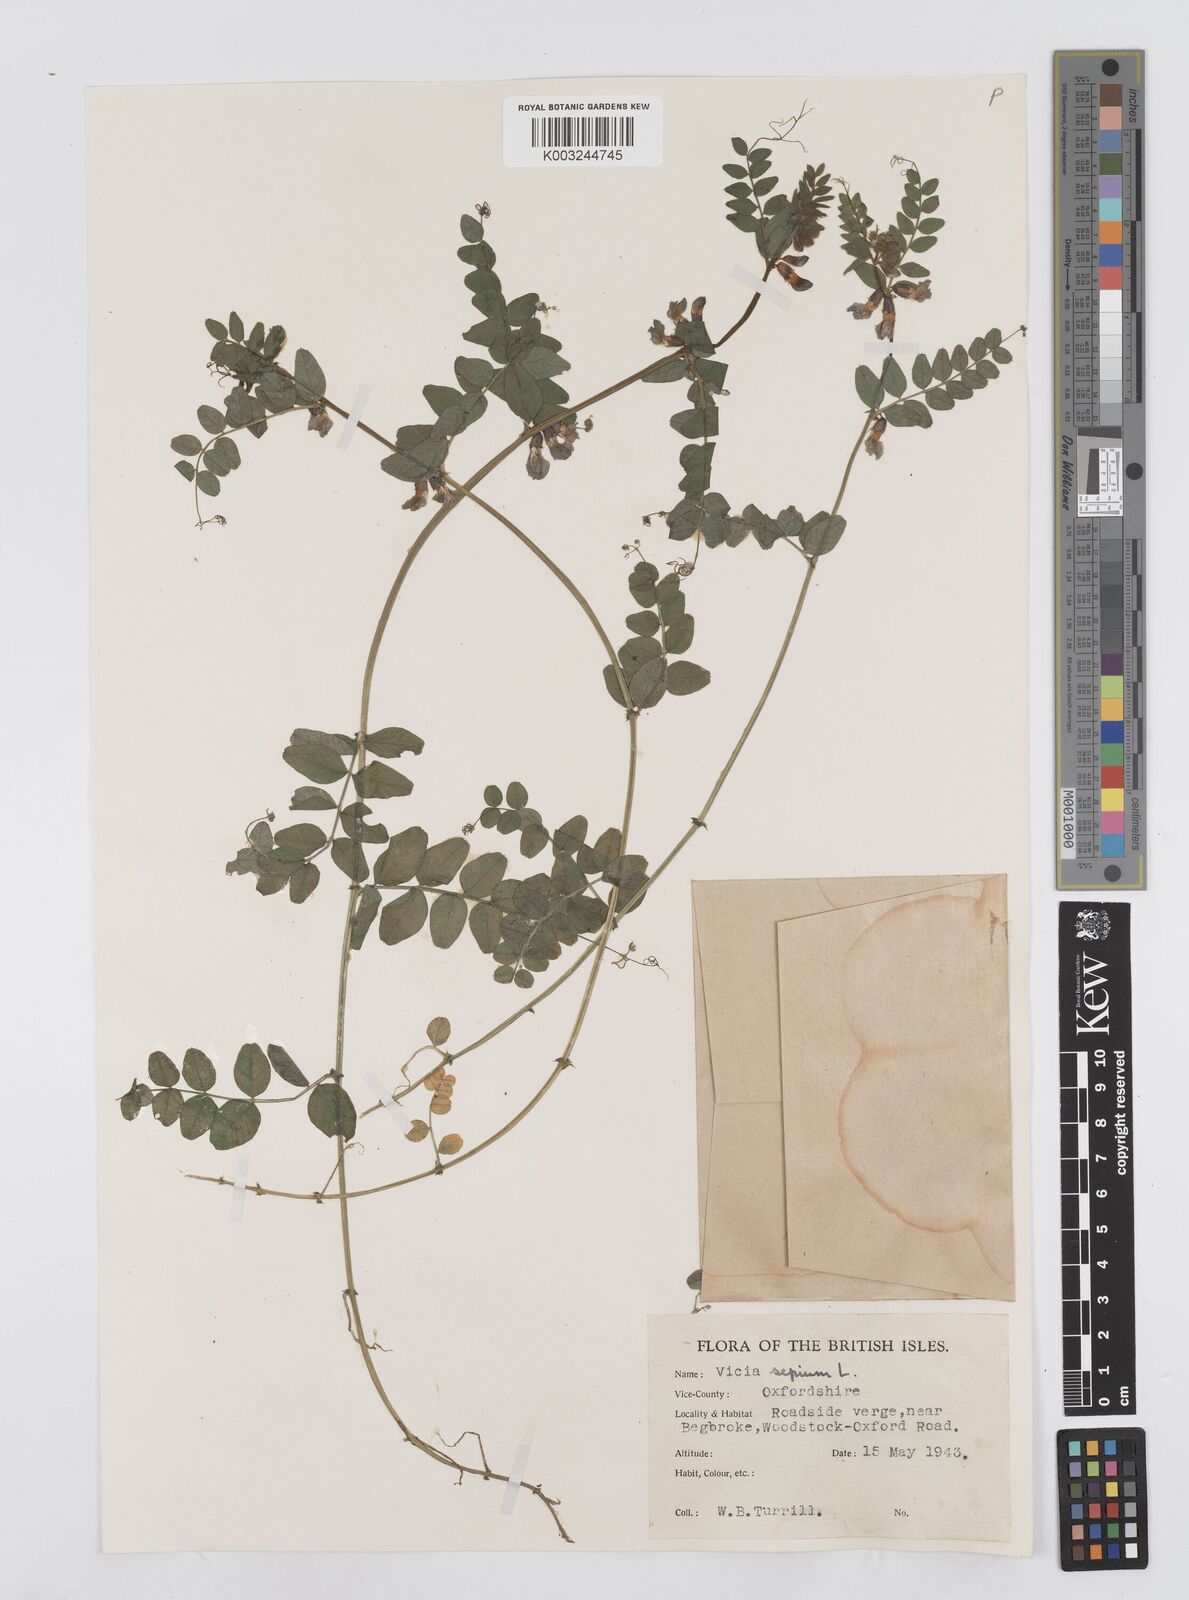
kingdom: Plantae
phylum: Tracheophyta
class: Magnoliopsida
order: Fabales
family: Fabaceae
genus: Vicia
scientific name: Vicia sepium
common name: Bush vetch
